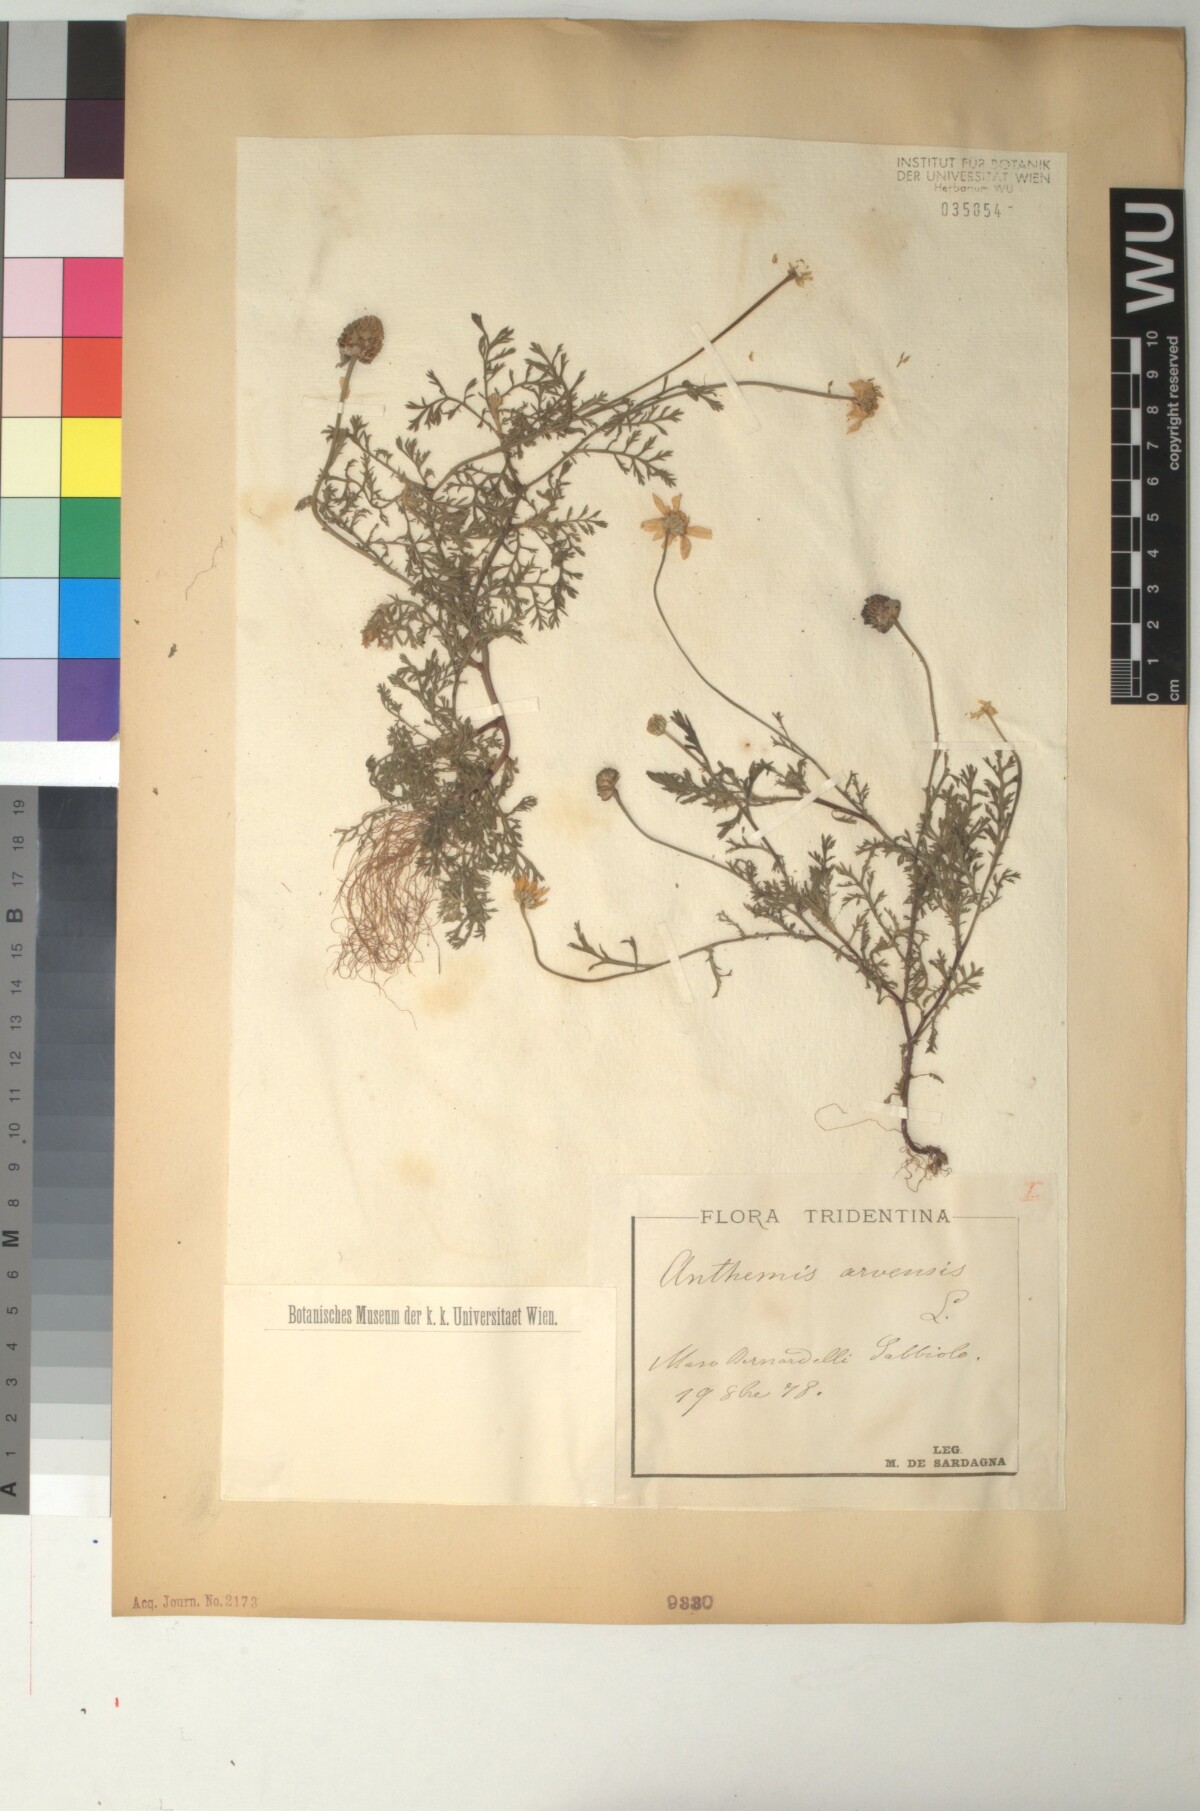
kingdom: Plantae
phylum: Tracheophyta
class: Magnoliopsida
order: Asterales
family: Asteraceae
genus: Anthemis
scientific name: Anthemis arvensis
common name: Corn chamomile
